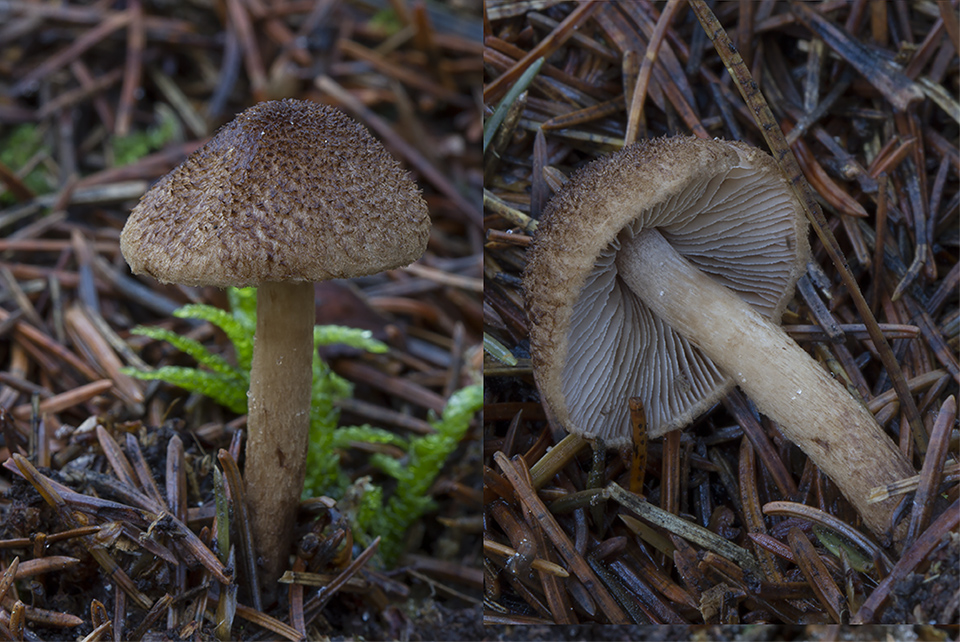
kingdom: Fungi
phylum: Basidiomycota
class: Agaricomycetes
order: Agaricales
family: Inocybaceae
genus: Inocybe
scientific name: Inocybe lanuginosa
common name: uldskællet trævlhat
